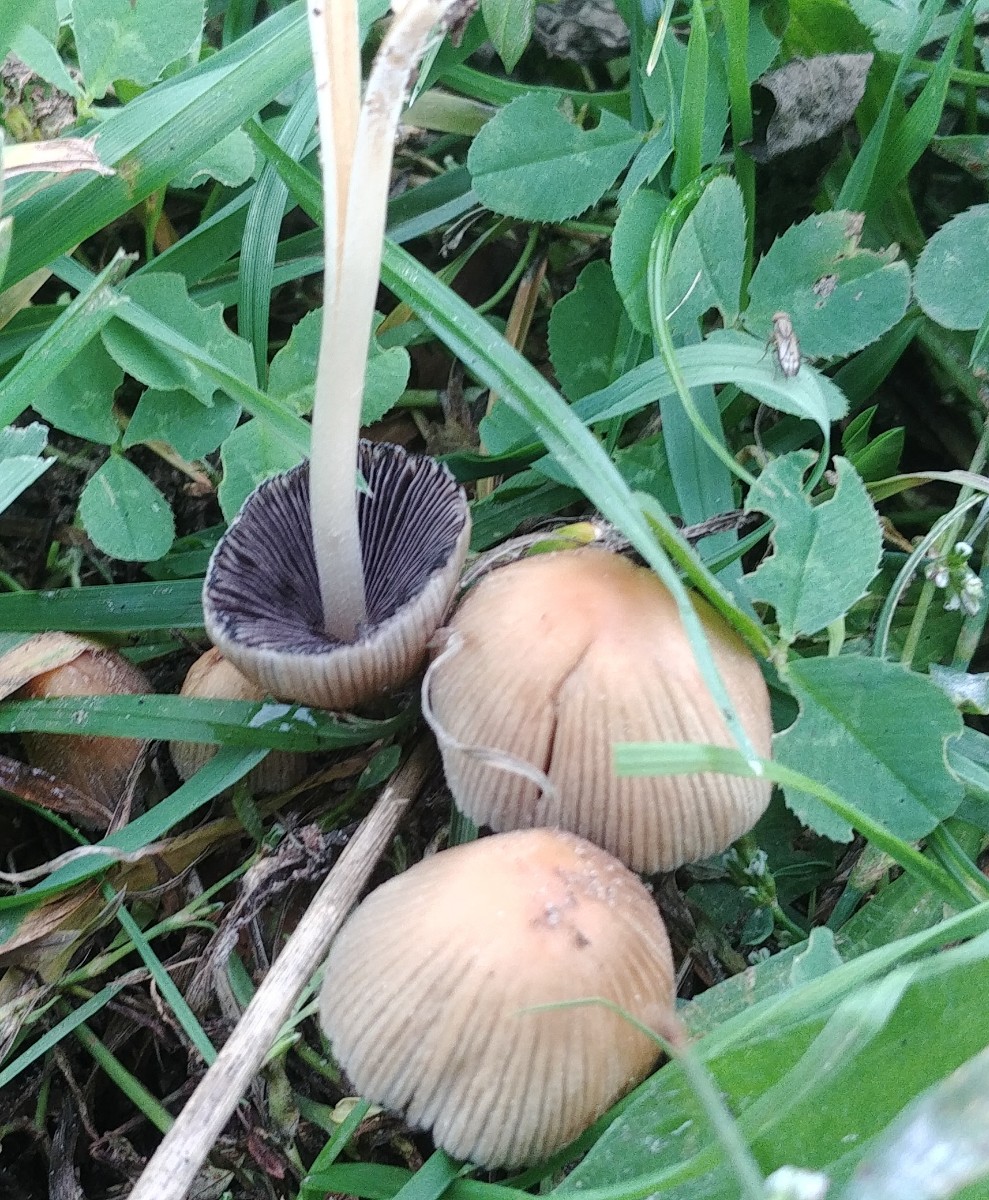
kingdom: Fungi
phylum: Basidiomycota
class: Agaricomycetes
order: Agaricales
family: Psathyrellaceae
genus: Coprinellus
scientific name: Coprinellus micaceus
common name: glimmer-blækhat
